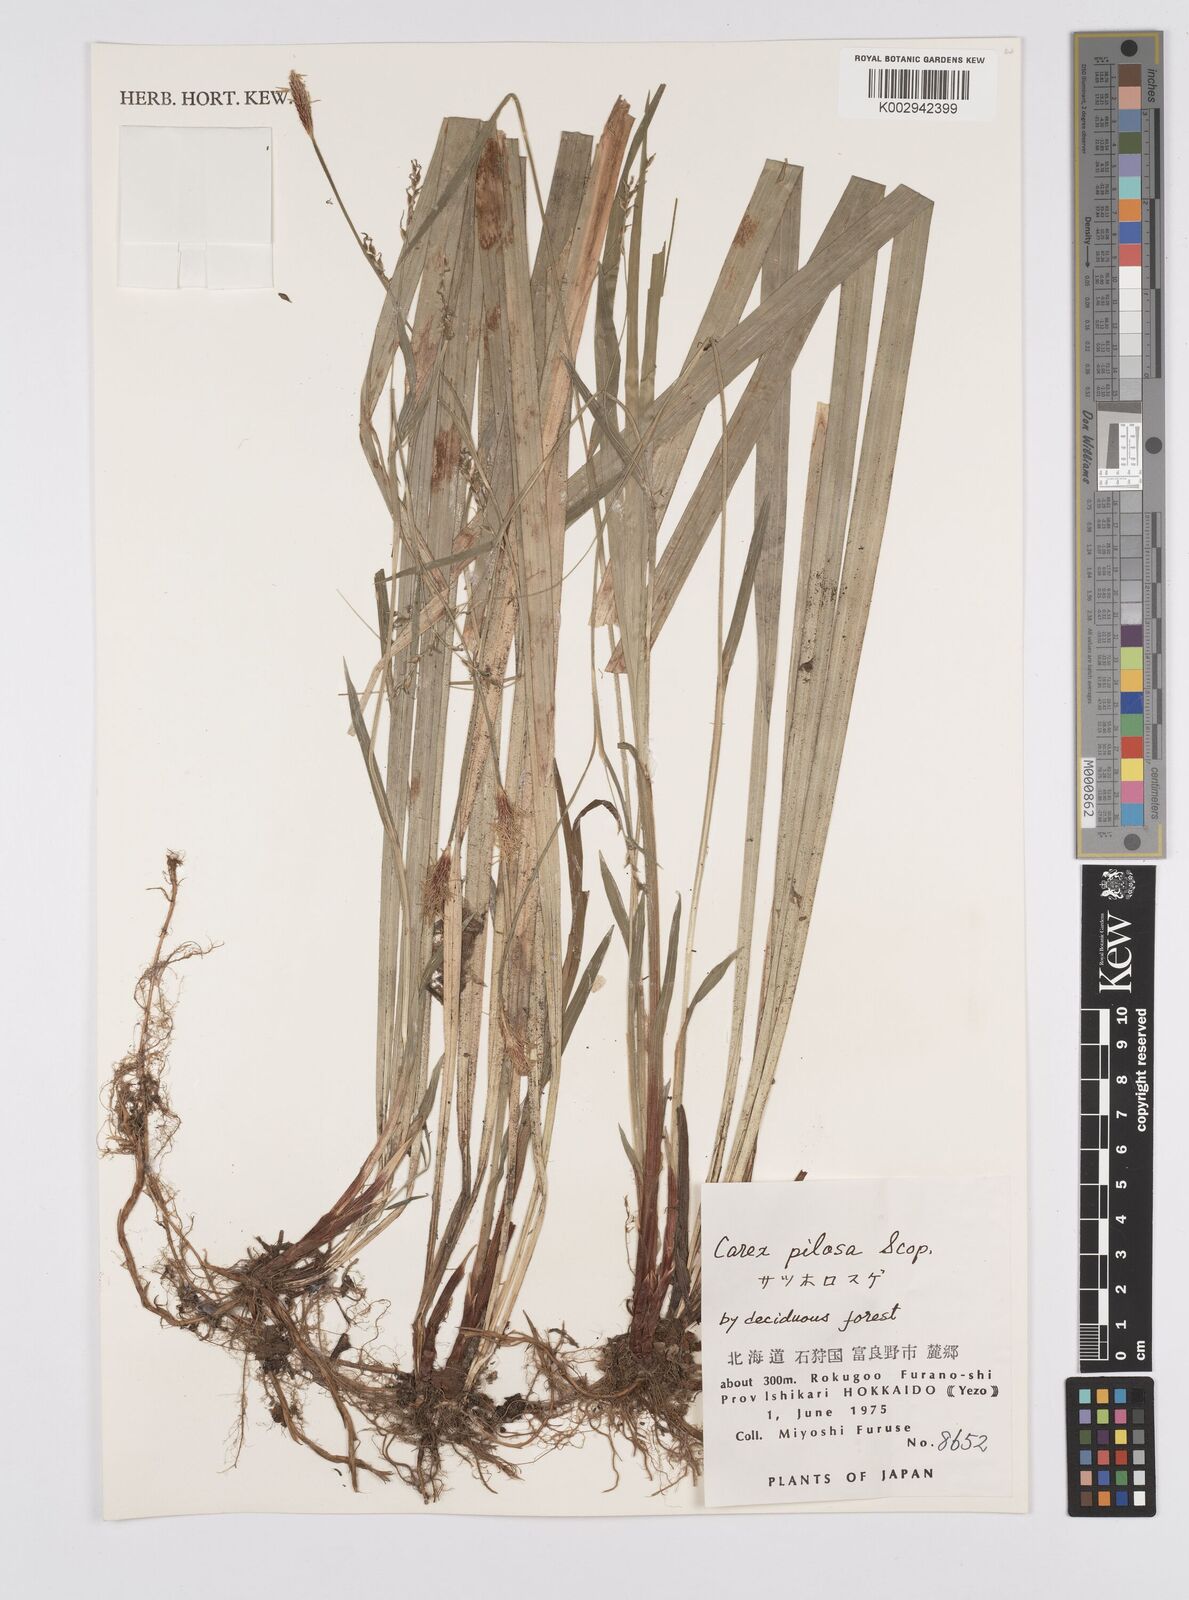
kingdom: Plantae
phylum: Tracheophyta
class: Liliopsida
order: Poales
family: Cyperaceae
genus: Carex
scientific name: Carex pilosa
